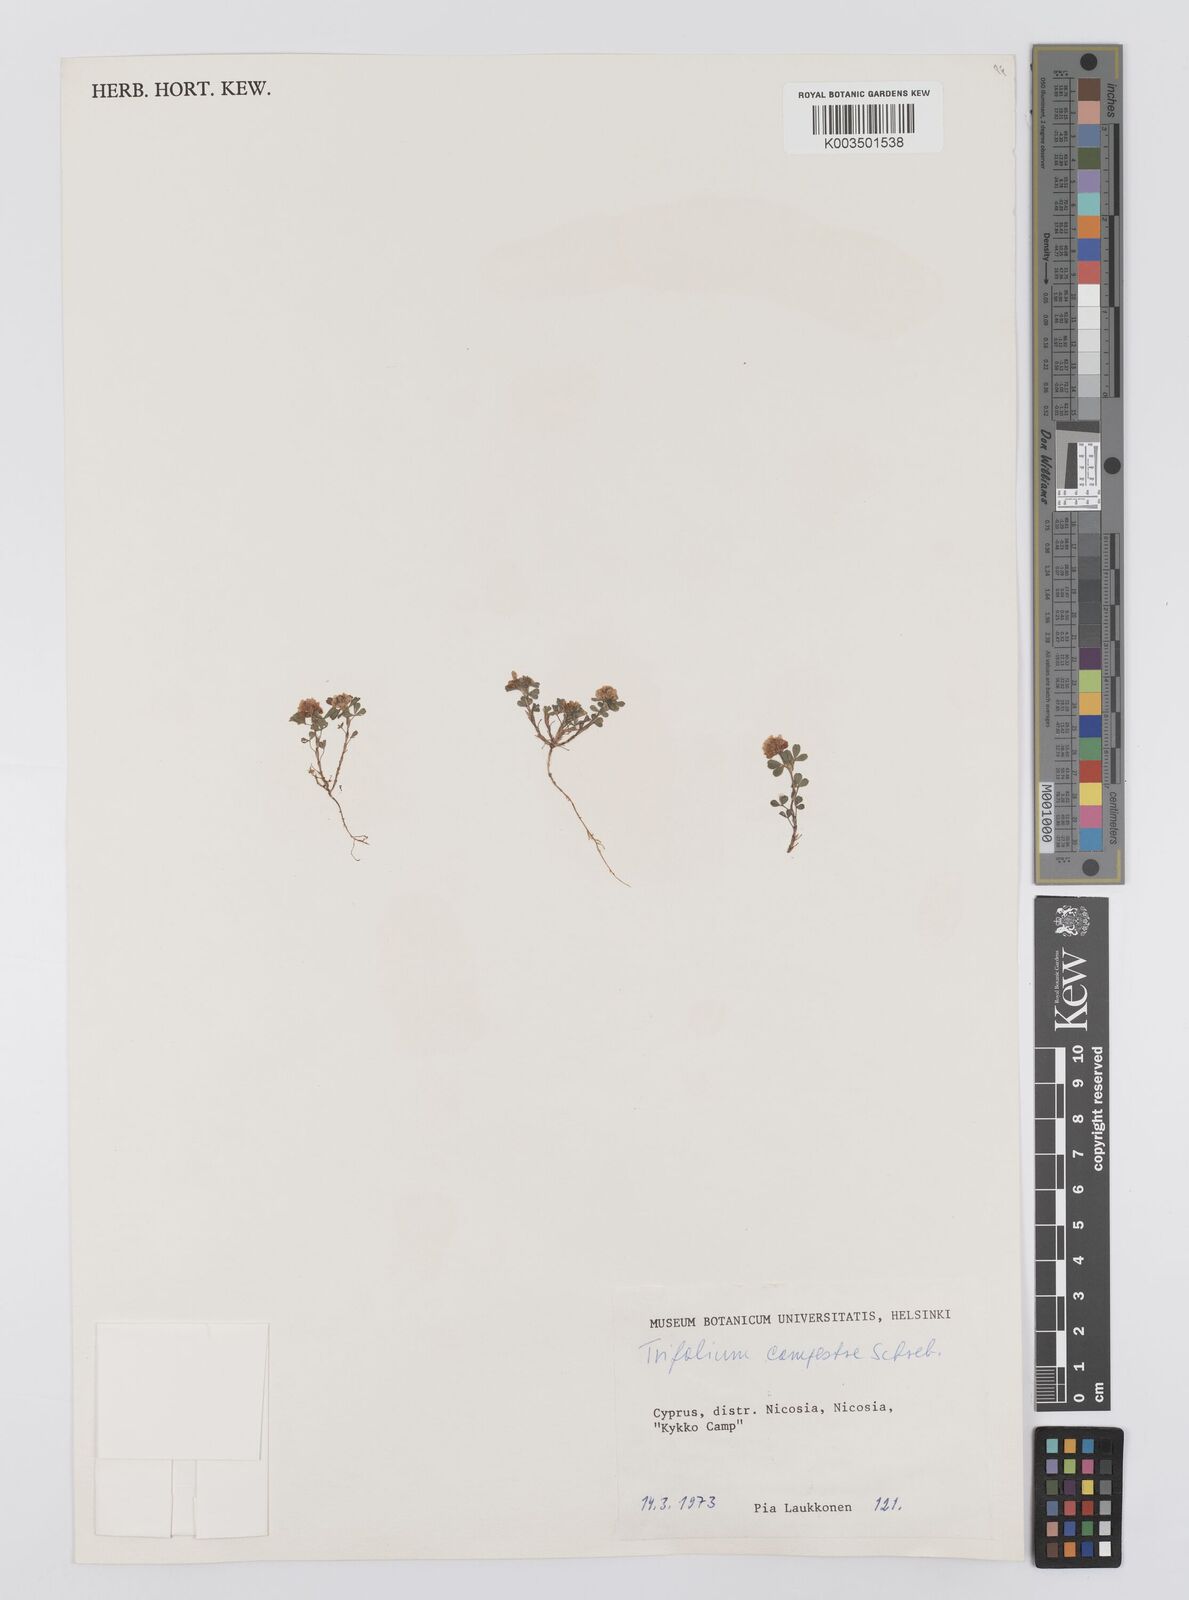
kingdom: Plantae
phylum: Tracheophyta
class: Magnoliopsida
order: Fabales
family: Fabaceae
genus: Trifolium
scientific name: Trifolium campestre
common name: Field clover
